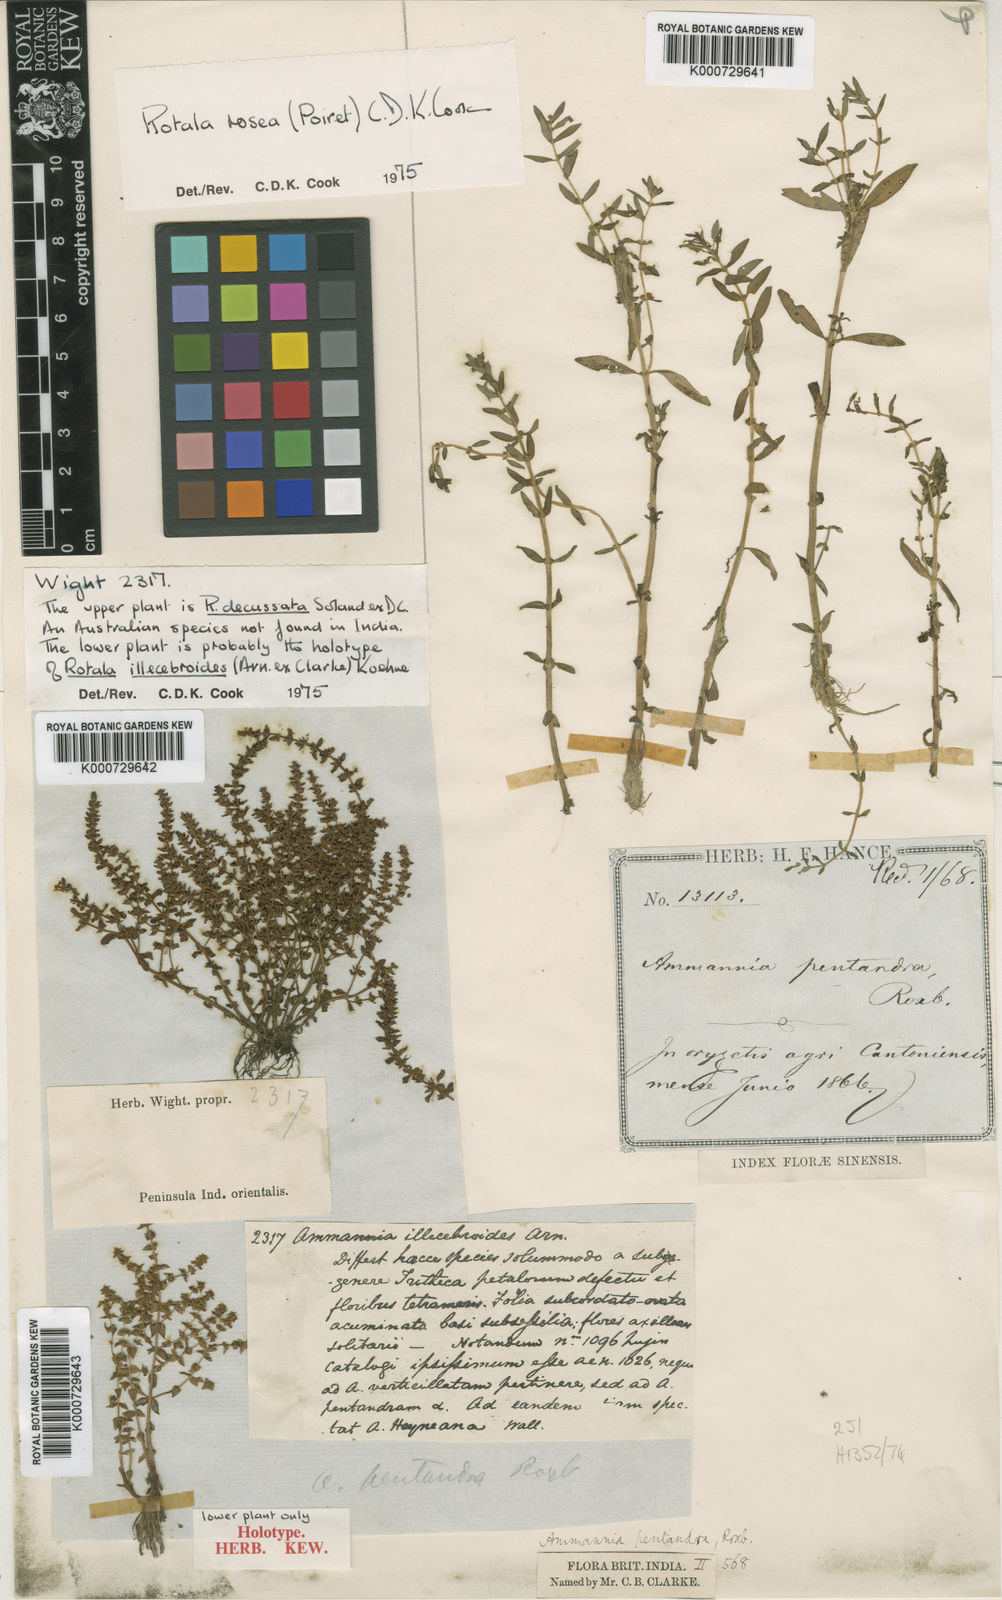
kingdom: Plantae
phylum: Tracheophyta
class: Magnoliopsida
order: Myrtales
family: Lythraceae
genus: Rotala
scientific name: Rotala illecebroides
